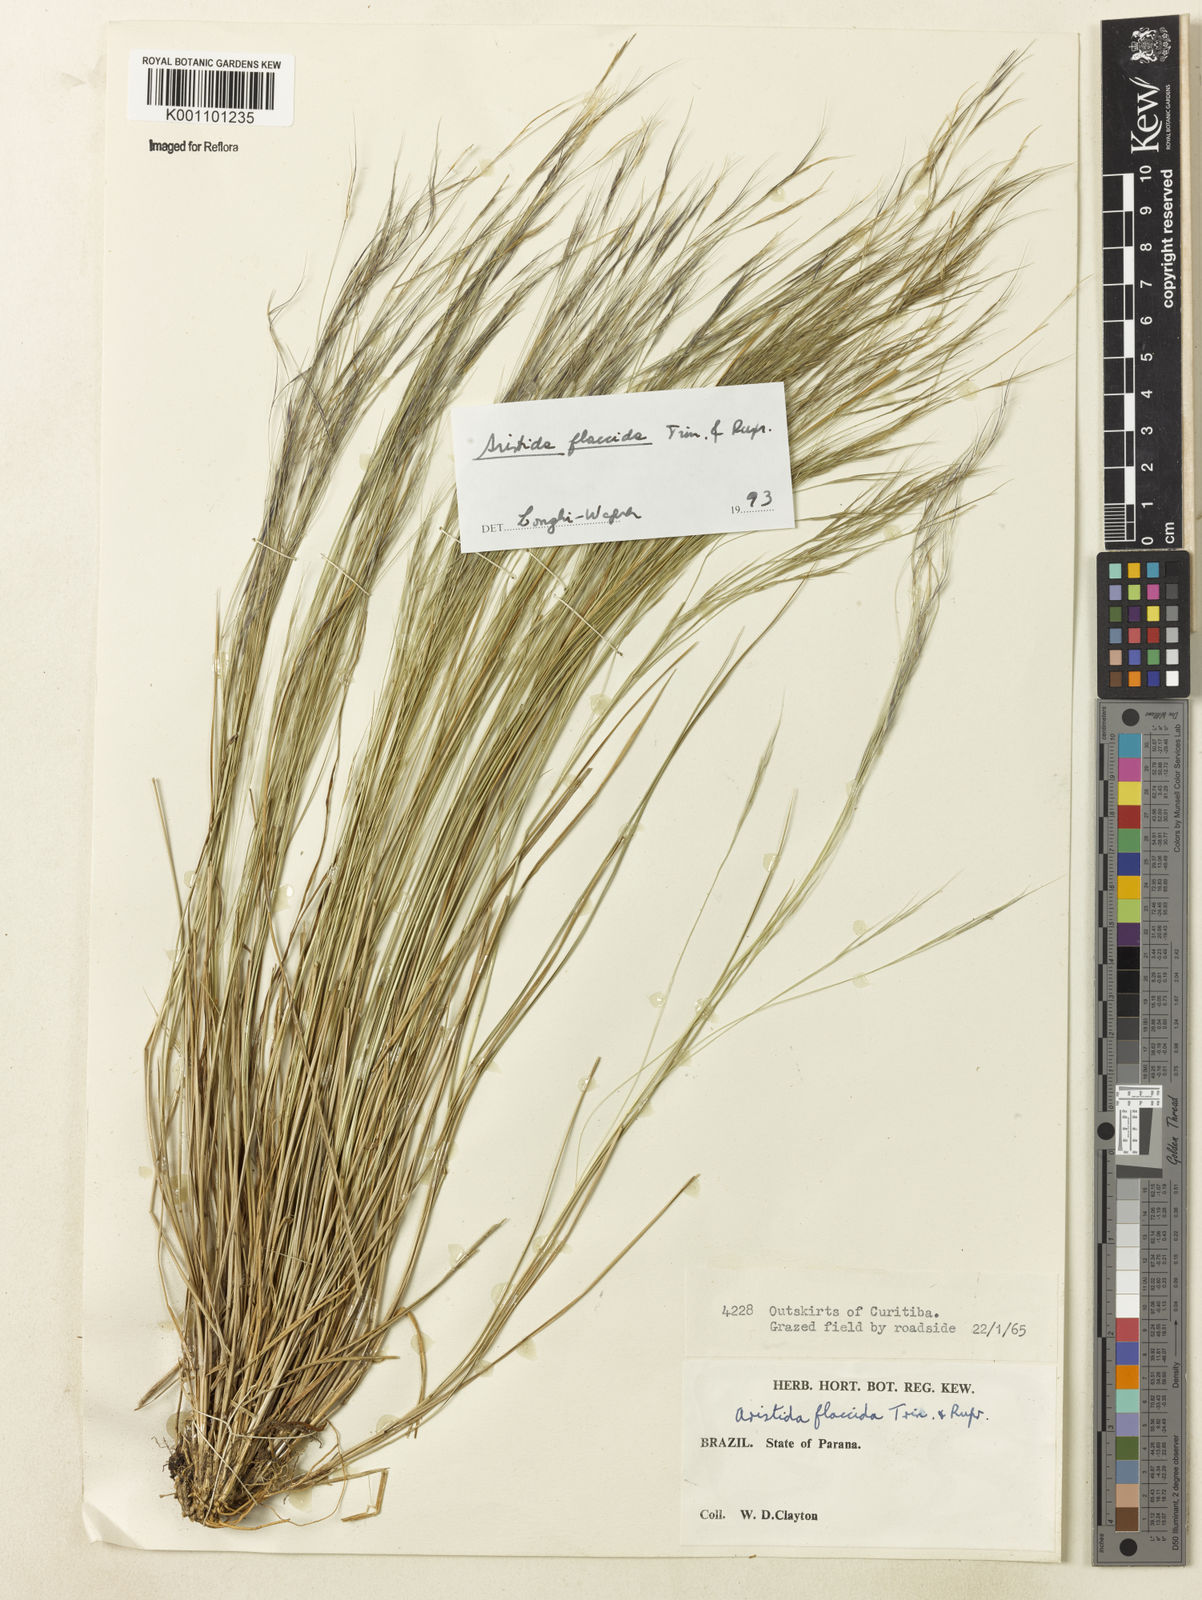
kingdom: Plantae
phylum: Tracheophyta
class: Liliopsida
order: Poales
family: Poaceae
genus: Aristida
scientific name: Aristida flaccida
